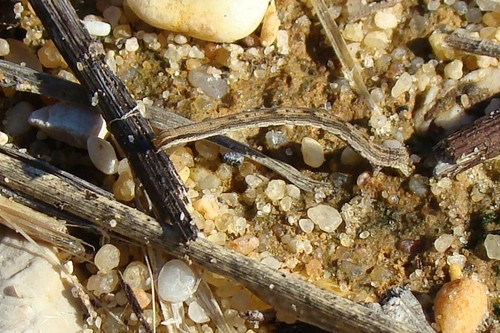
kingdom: Animalia
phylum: Arthropoda
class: Insecta
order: Lepidoptera
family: Geometridae
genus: Rhodometra
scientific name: Rhodometra sacraria
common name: Vestal
